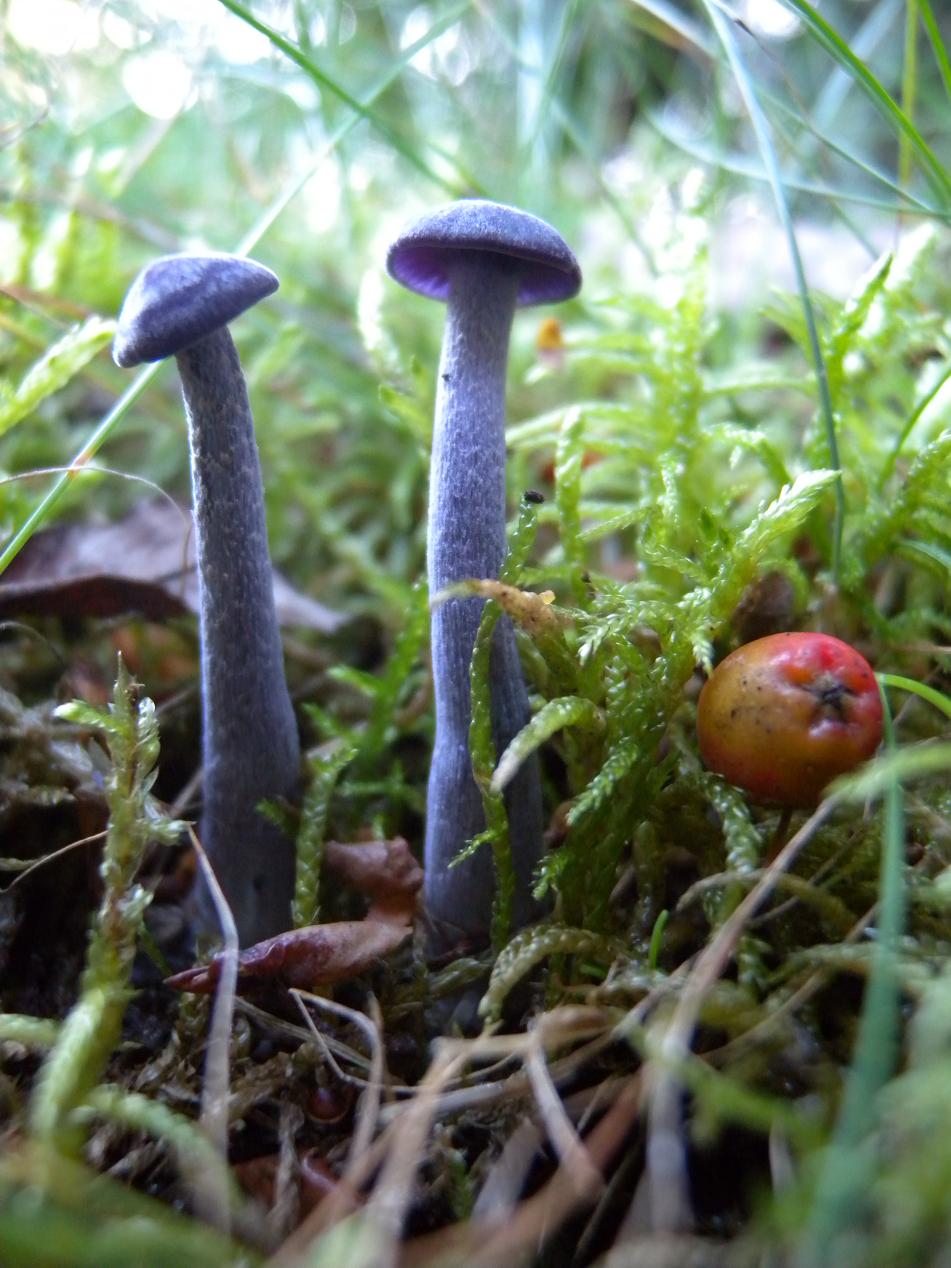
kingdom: Fungi
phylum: Basidiomycota
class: Agaricomycetes
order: Agaricales
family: Hydnangiaceae
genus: Laccaria
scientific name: Laccaria amethystina
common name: violet ametysthat
